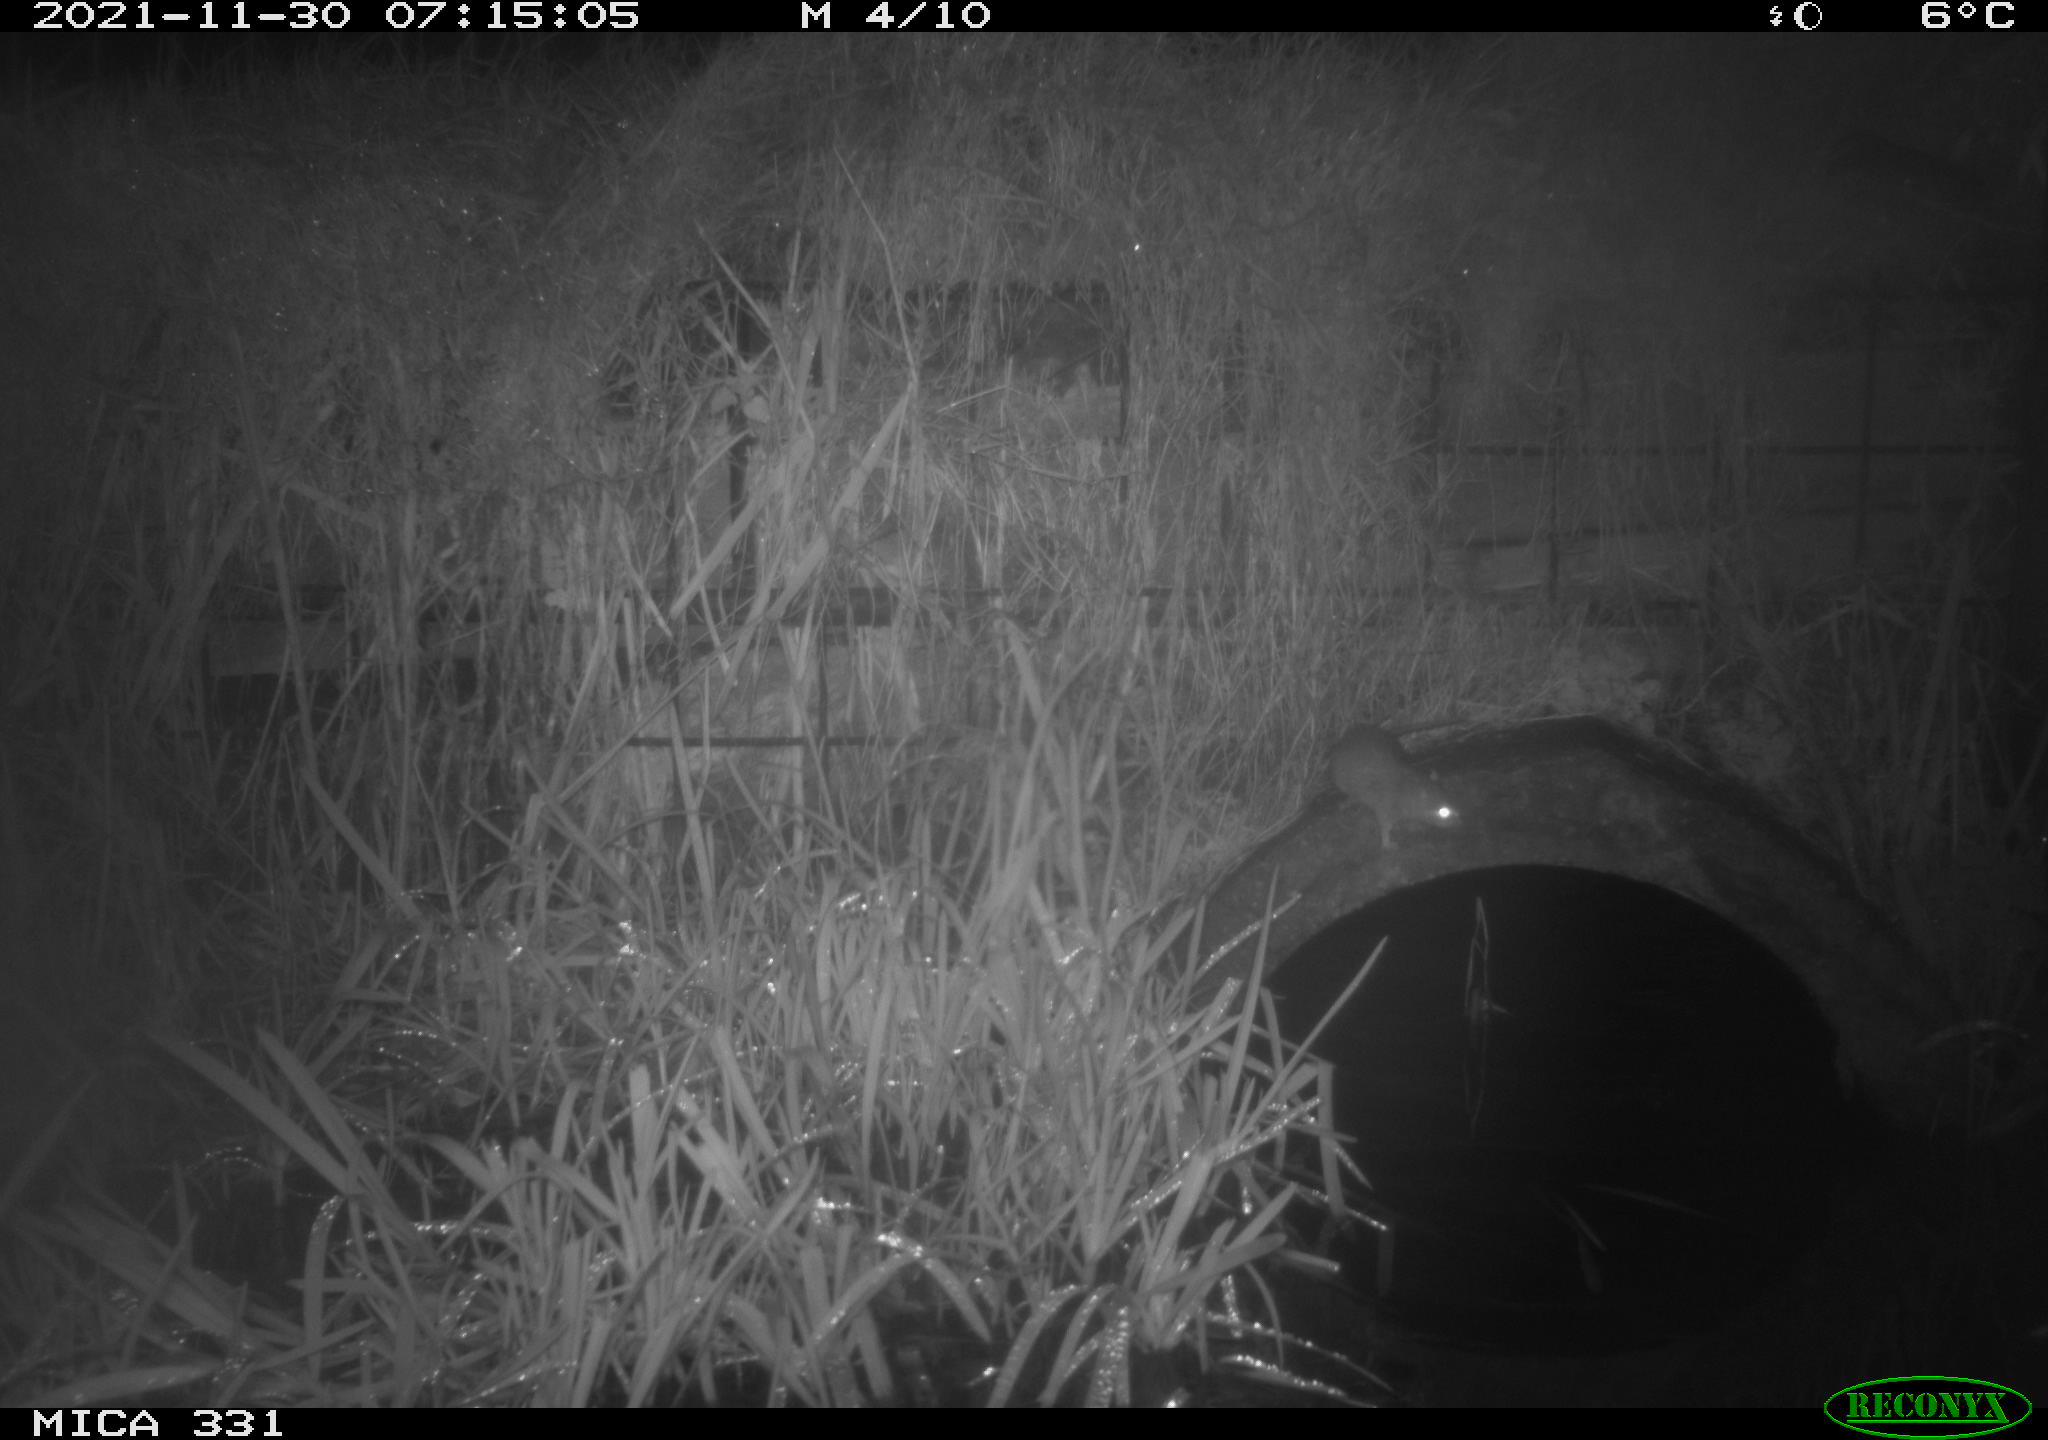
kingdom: Animalia
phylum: Chordata
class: Mammalia
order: Rodentia
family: Muridae
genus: Rattus
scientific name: Rattus norvegicus
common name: Brown rat
